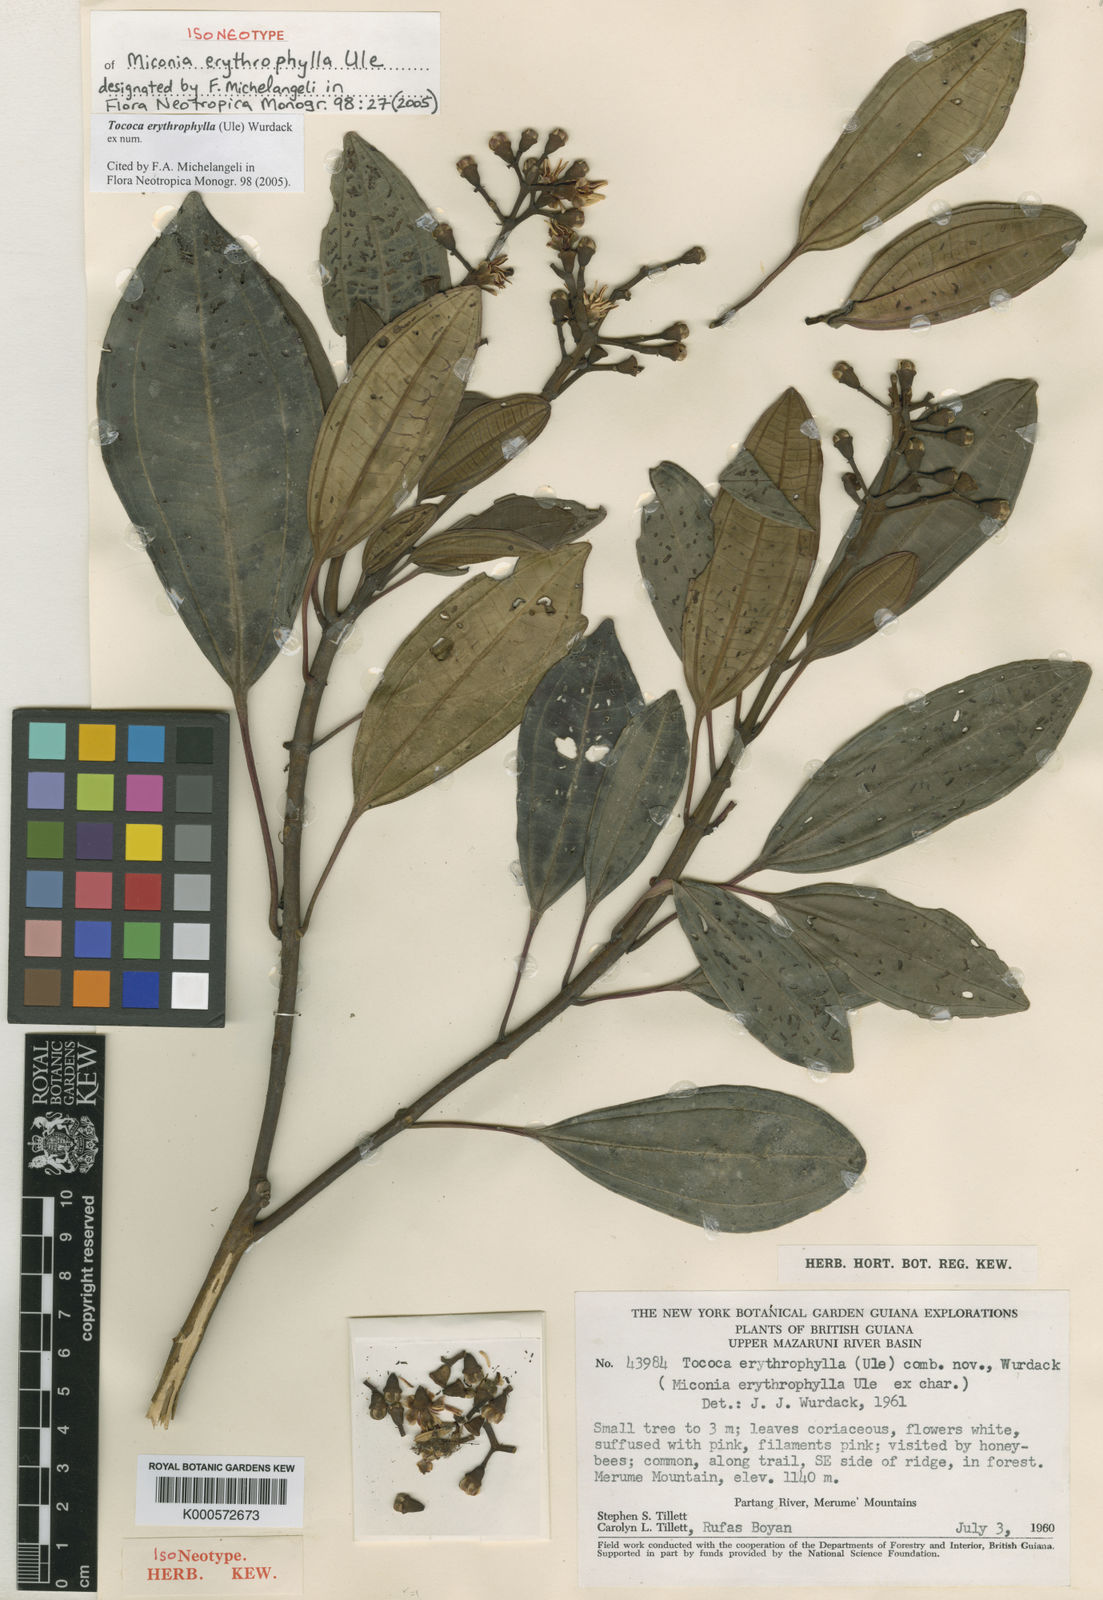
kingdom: Plantae
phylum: Tracheophyta
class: Magnoliopsida
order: Myrtales
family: Melastomataceae
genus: Miconia
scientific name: Miconia erythrophylla
